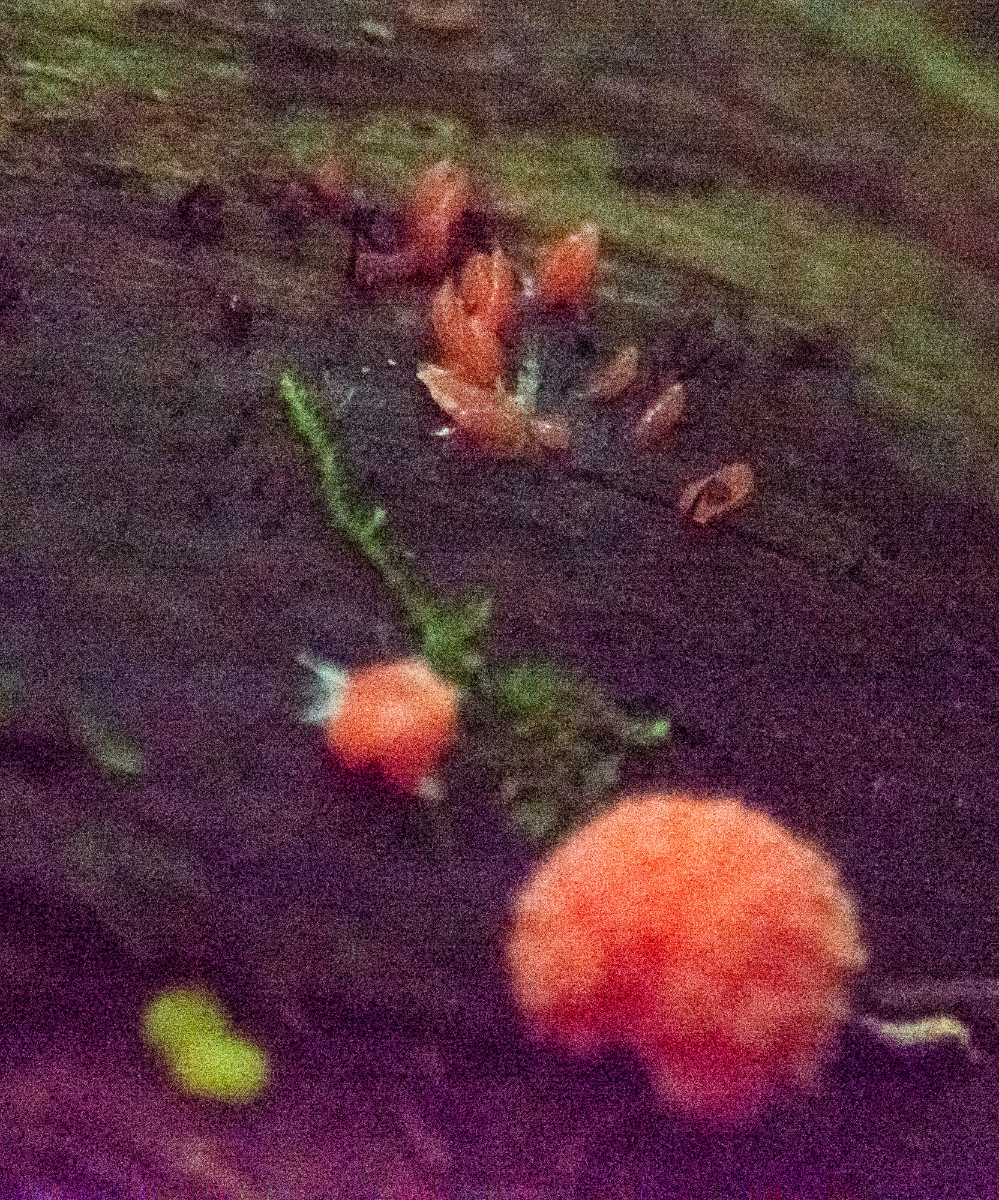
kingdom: Protozoa
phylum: Mycetozoa
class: Myxomycetes
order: Cribrariales
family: Tubiferaceae
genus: Tubifera
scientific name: Tubifera ferruginosa
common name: kanel-støvrør
